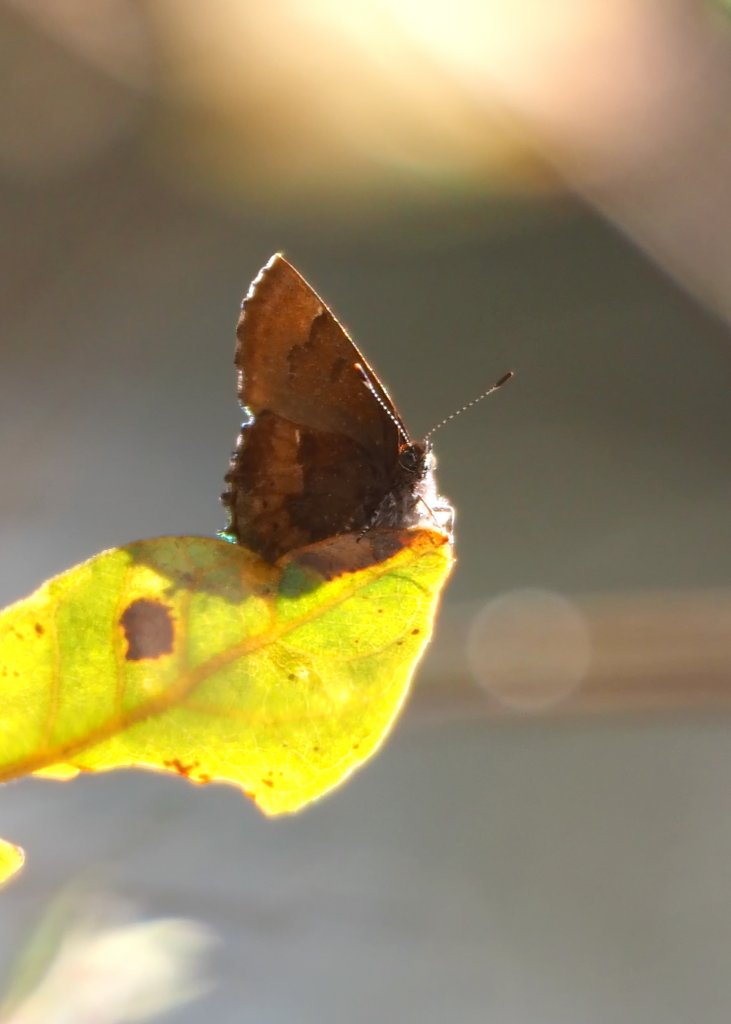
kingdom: Animalia
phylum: Arthropoda
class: Insecta
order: Lepidoptera
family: Lycaenidae
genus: Incisalia
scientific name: Incisalia henrici
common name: Henry's Elfin
